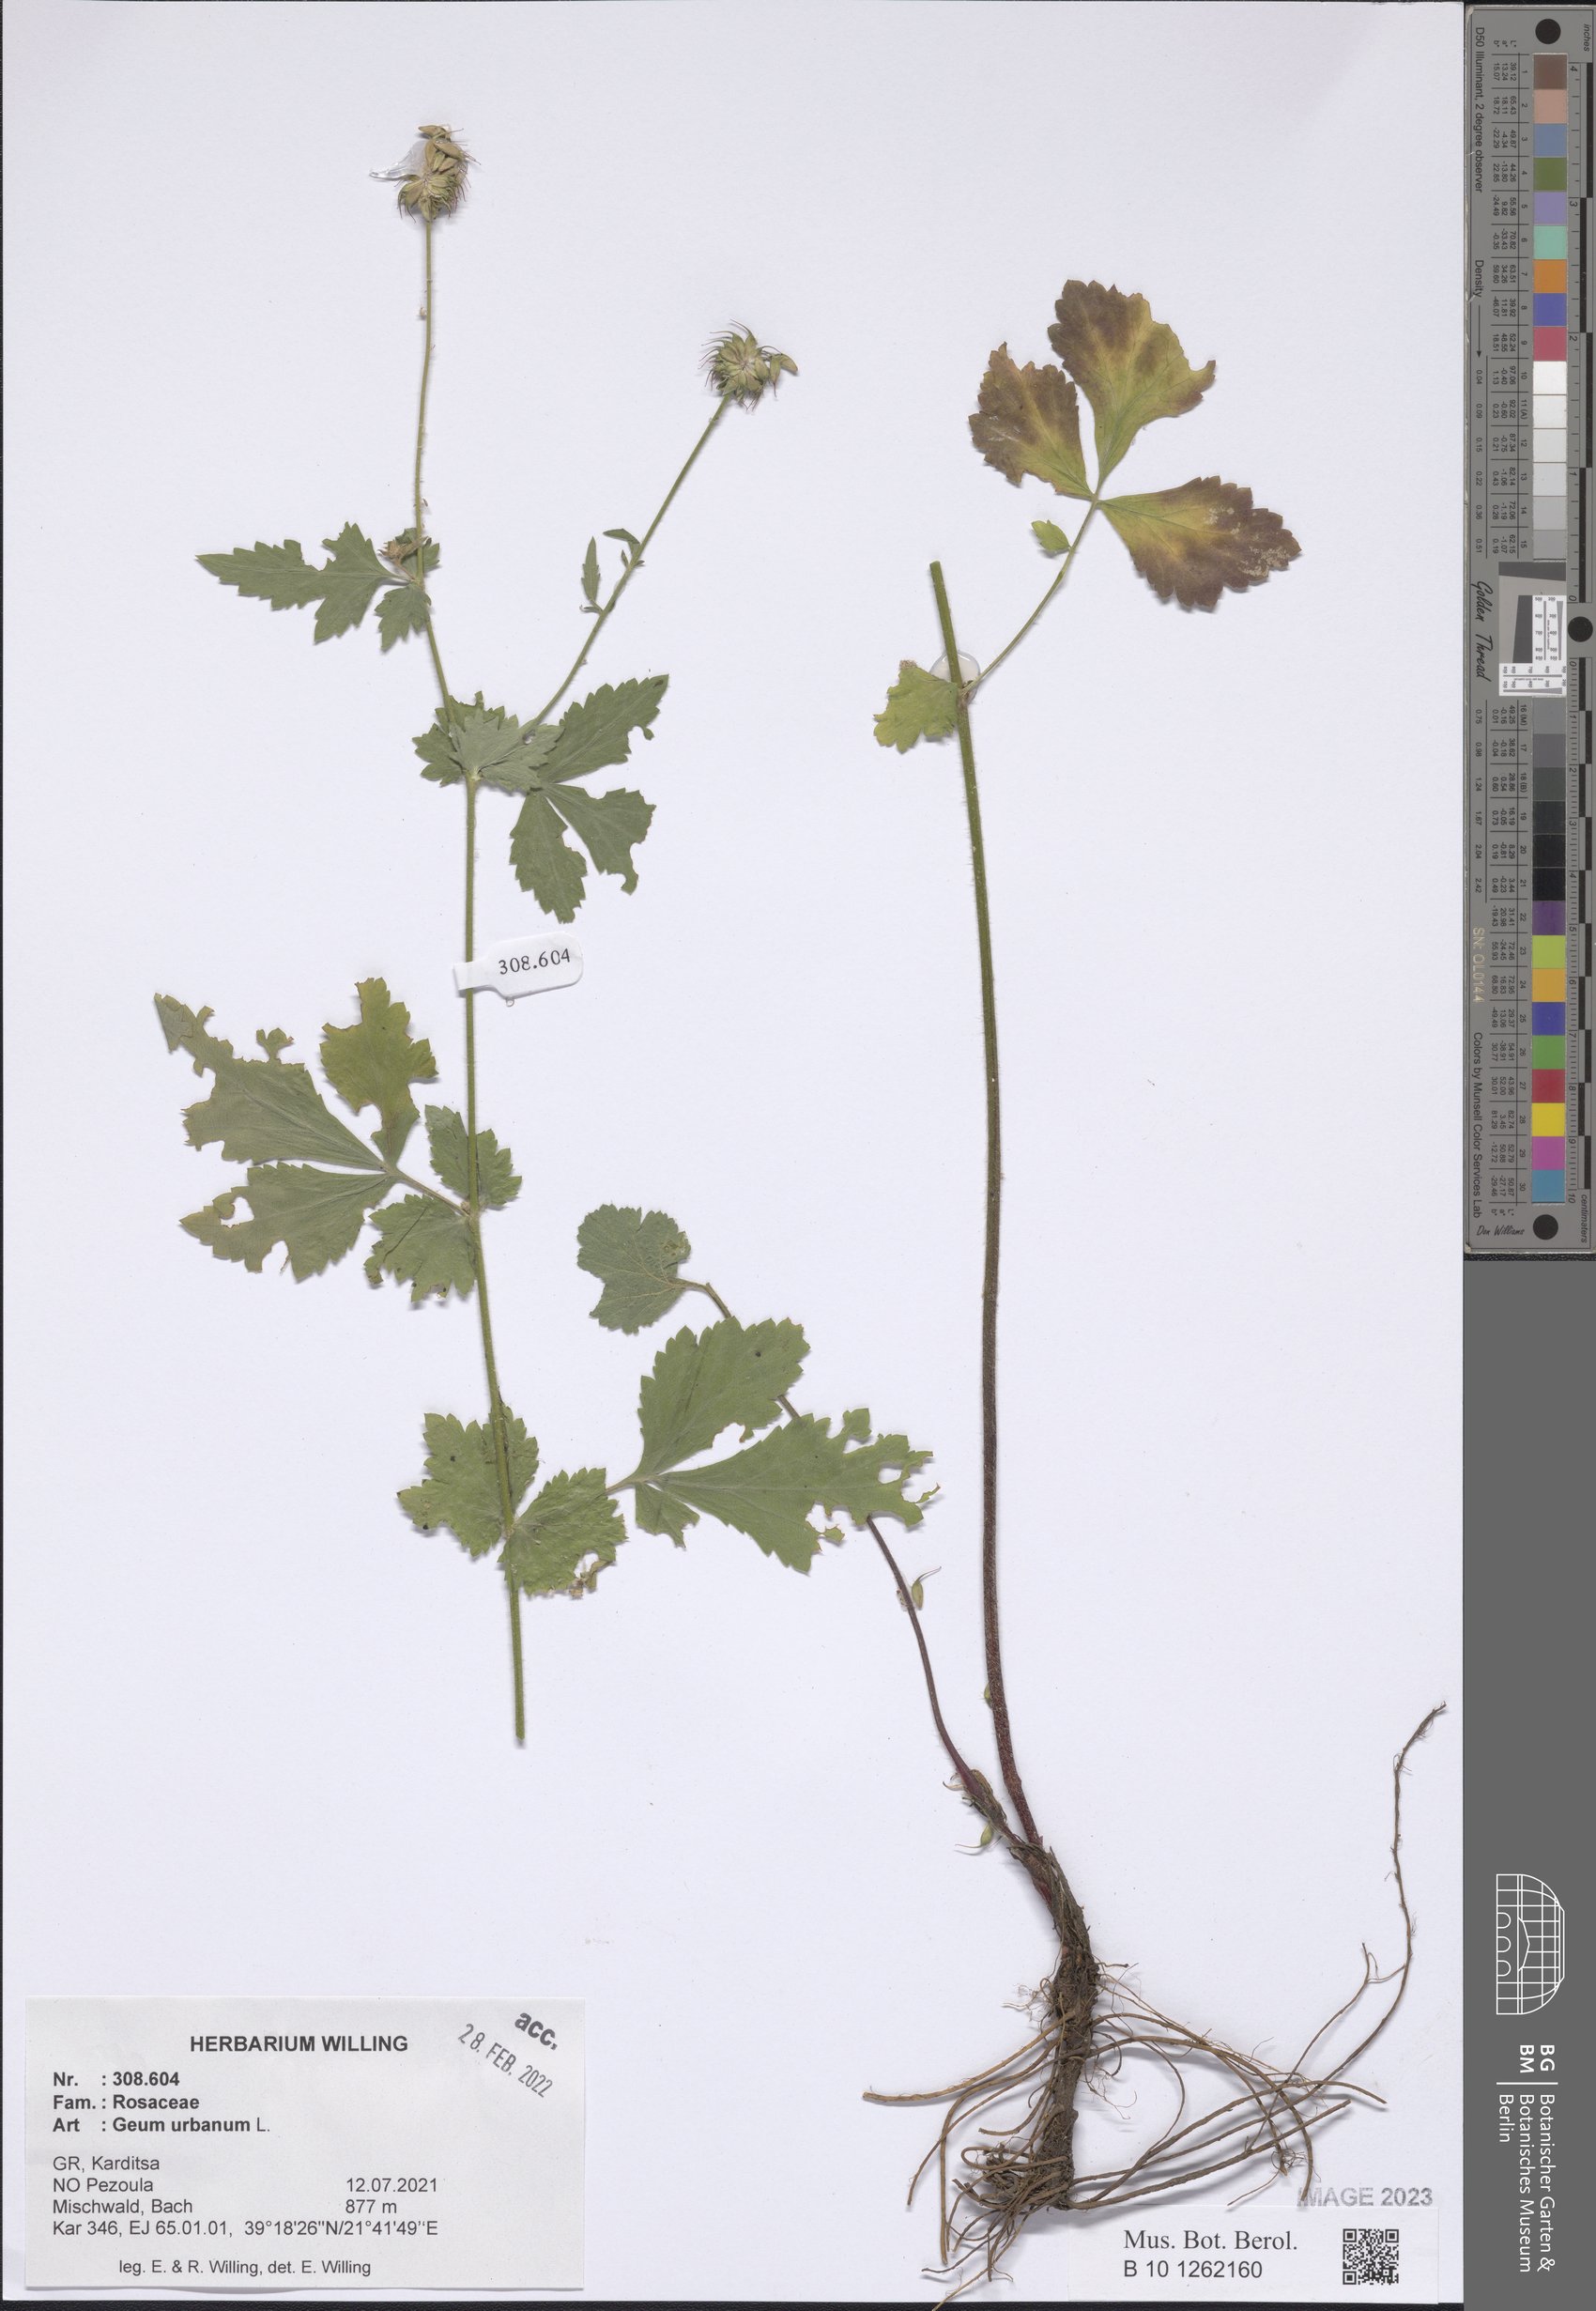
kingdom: Plantae
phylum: Tracheophyta
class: Magnoliopsida
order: Rosales
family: Rosaceae
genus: Geum
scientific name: Geum urbanum
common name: Wood avens
